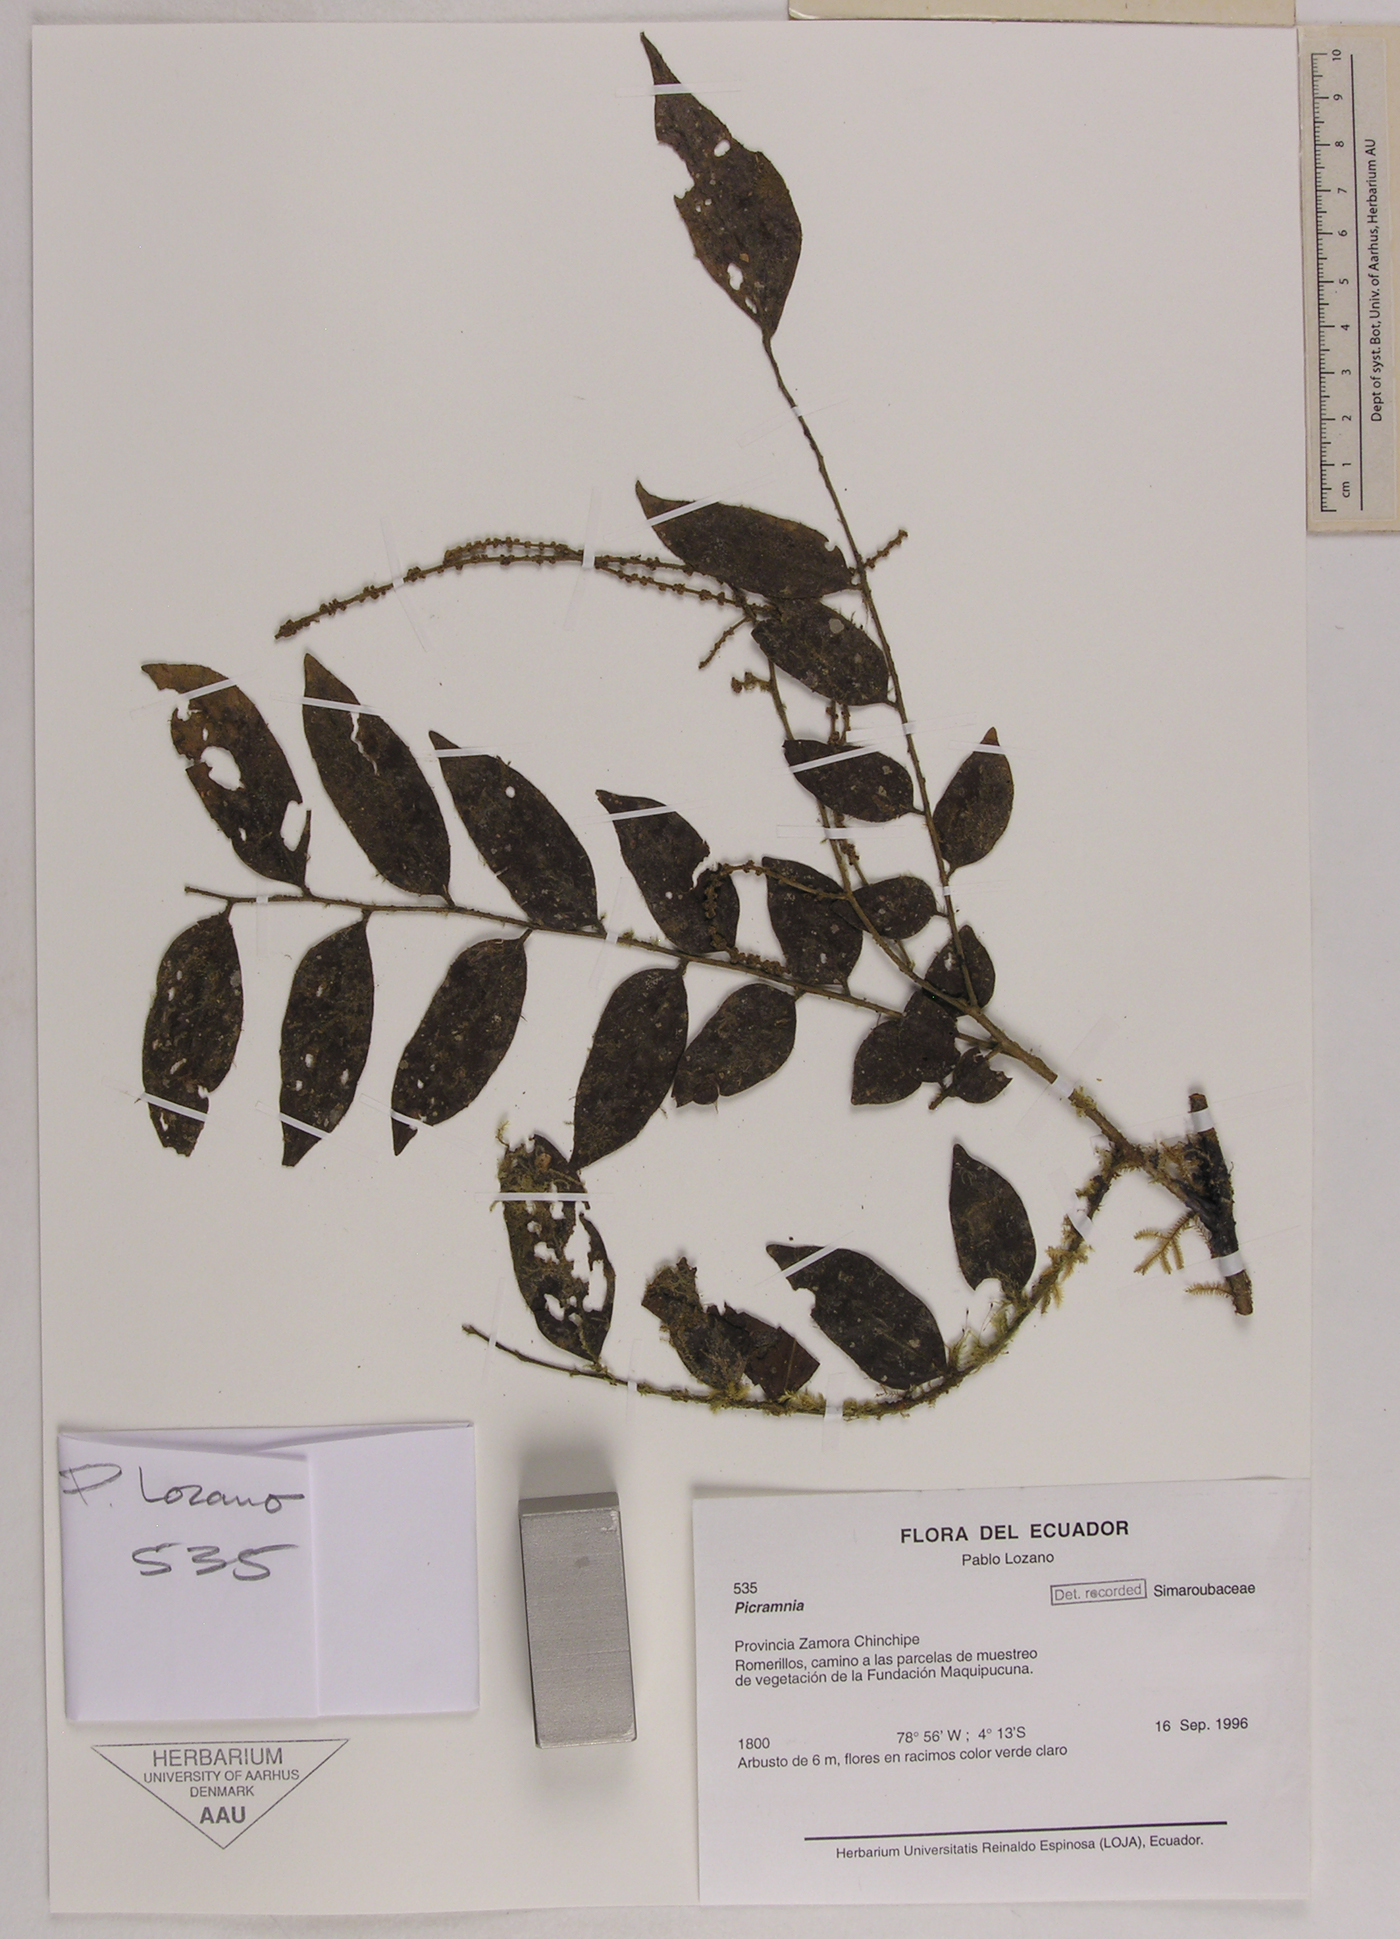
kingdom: Plantae
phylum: Tracheophyta
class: Magnoliopsida
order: Picramniales
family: Picramniaceae
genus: Picramnia
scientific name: Picramnia
